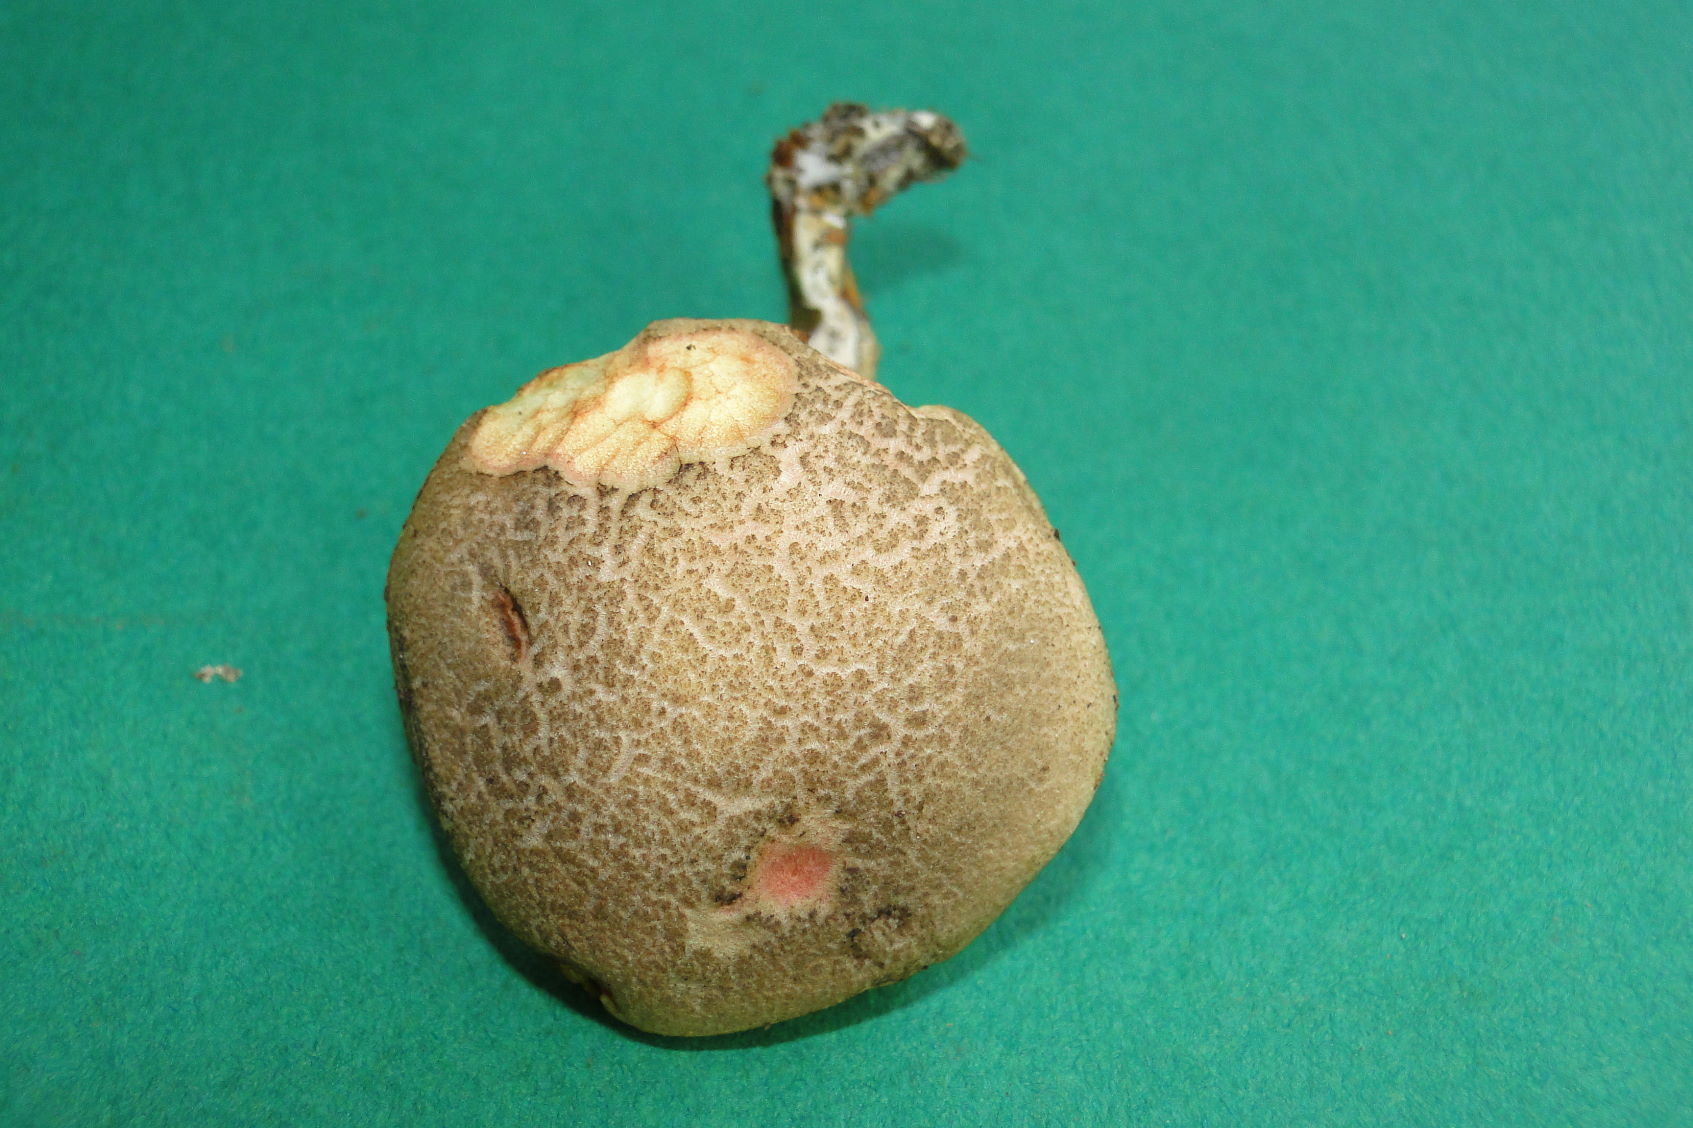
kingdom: Fungi
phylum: Basidiomycota
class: Agaricomycetes
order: Boletales
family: Boletaceae
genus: Xerocomellus
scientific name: Xerocomellus chrysenteron
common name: rødsprukken rørhat
